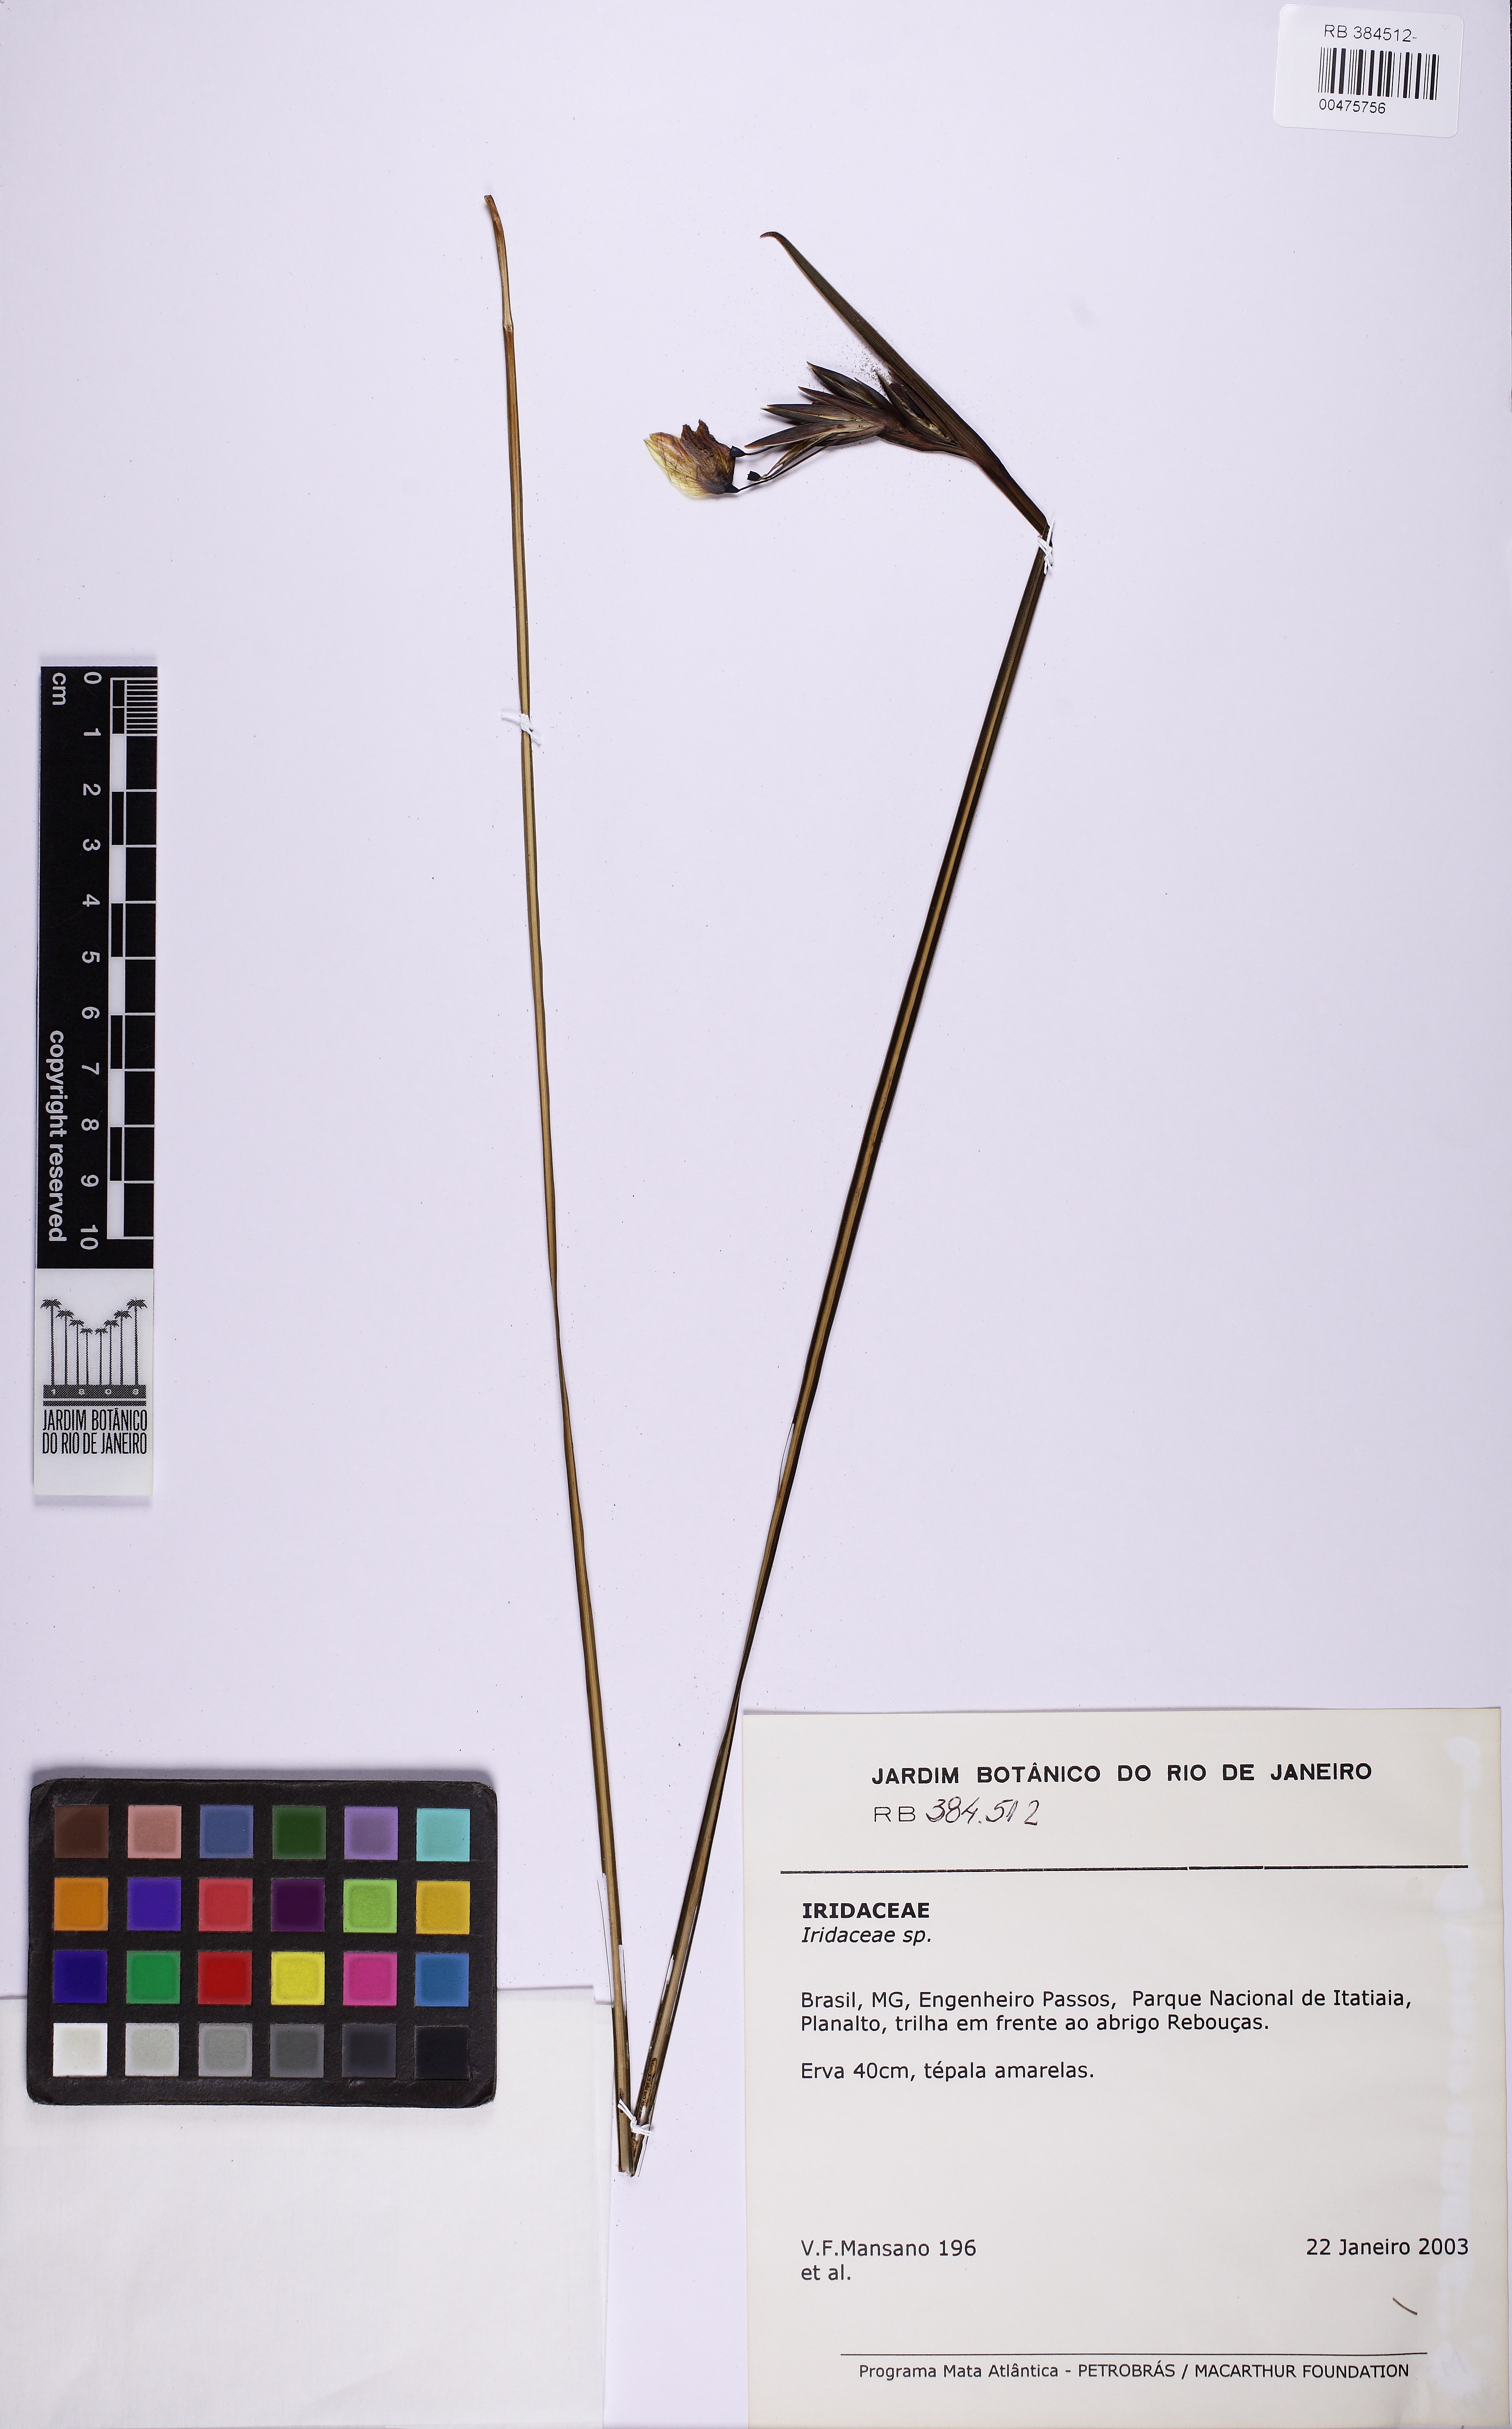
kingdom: Plantae
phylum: Tracheophyta
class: Liliopsida
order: Asparagales
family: Iridaceae
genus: Sisyrinchium
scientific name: Sisyrinchium wettsteinii
